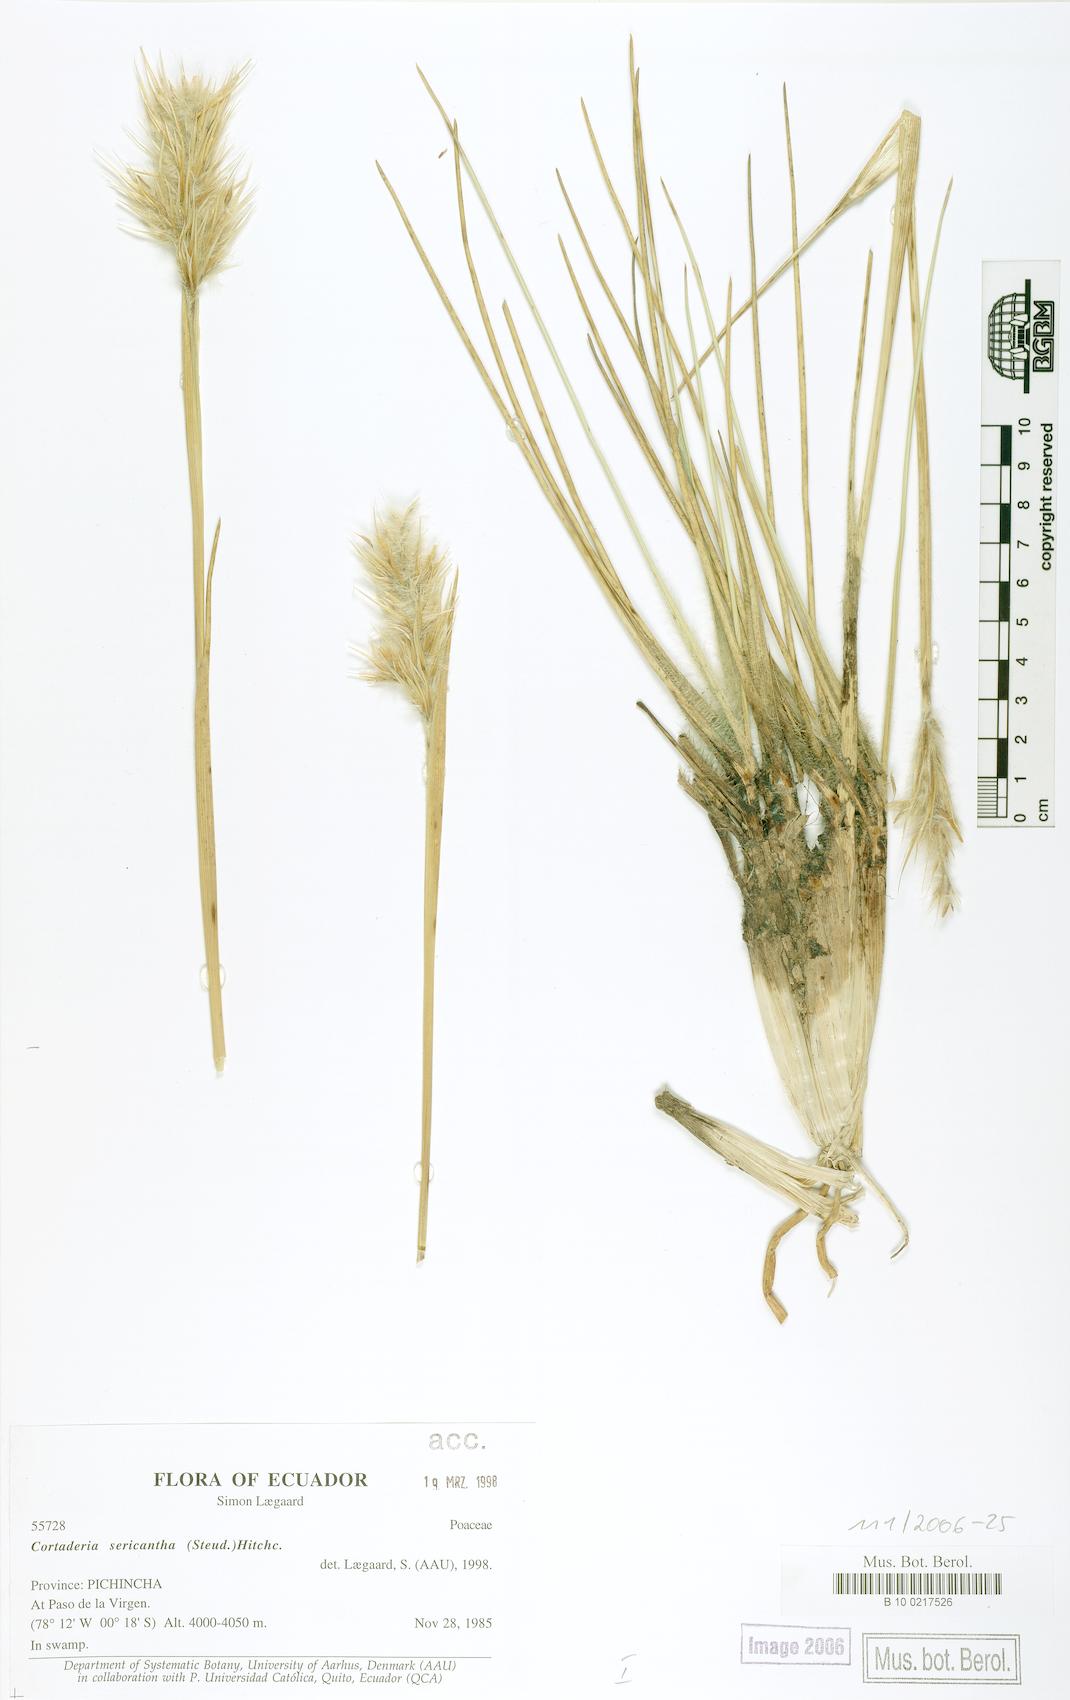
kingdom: Plantae
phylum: Tracheophyta
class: Liliopsida
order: Poales
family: Poaceae
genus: Cortaderia
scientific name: Cortaderia sericantha
